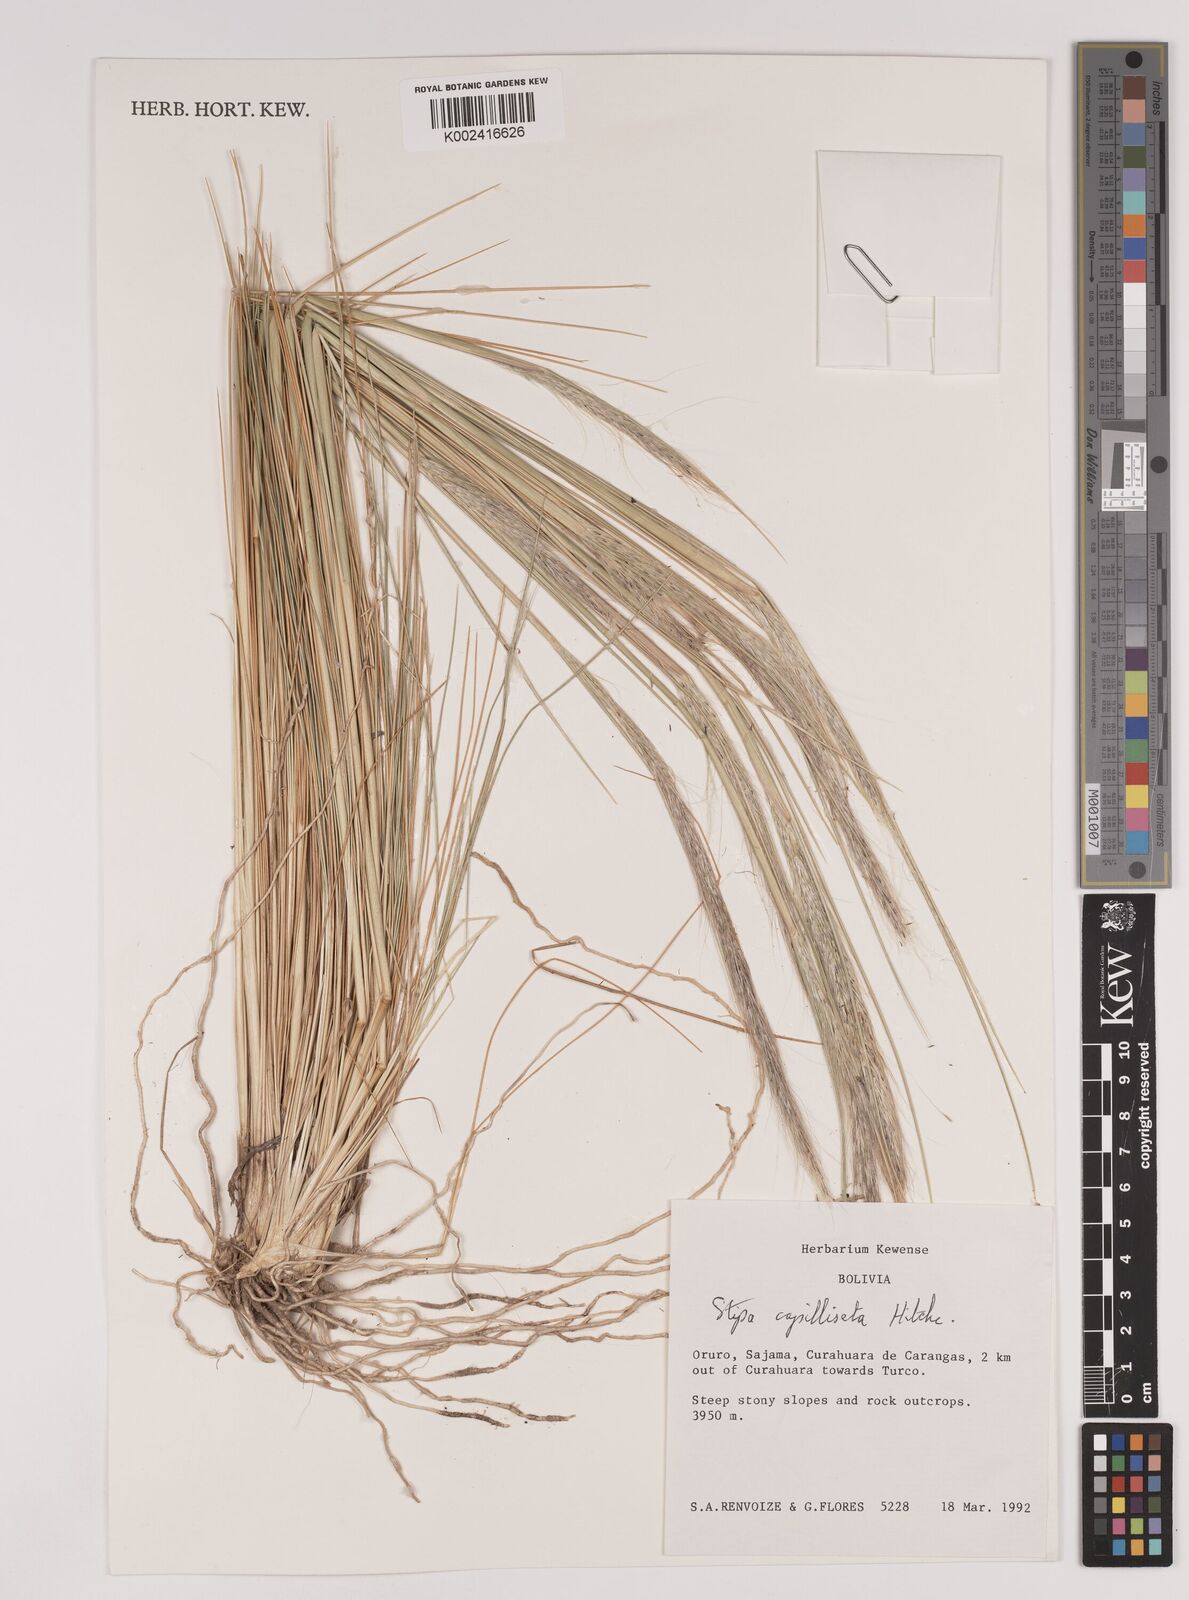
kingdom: Plantae
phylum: Tracheophyta
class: Liliopsida
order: Poales
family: Poaceae
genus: Jarava
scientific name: Jarava leptostachya
